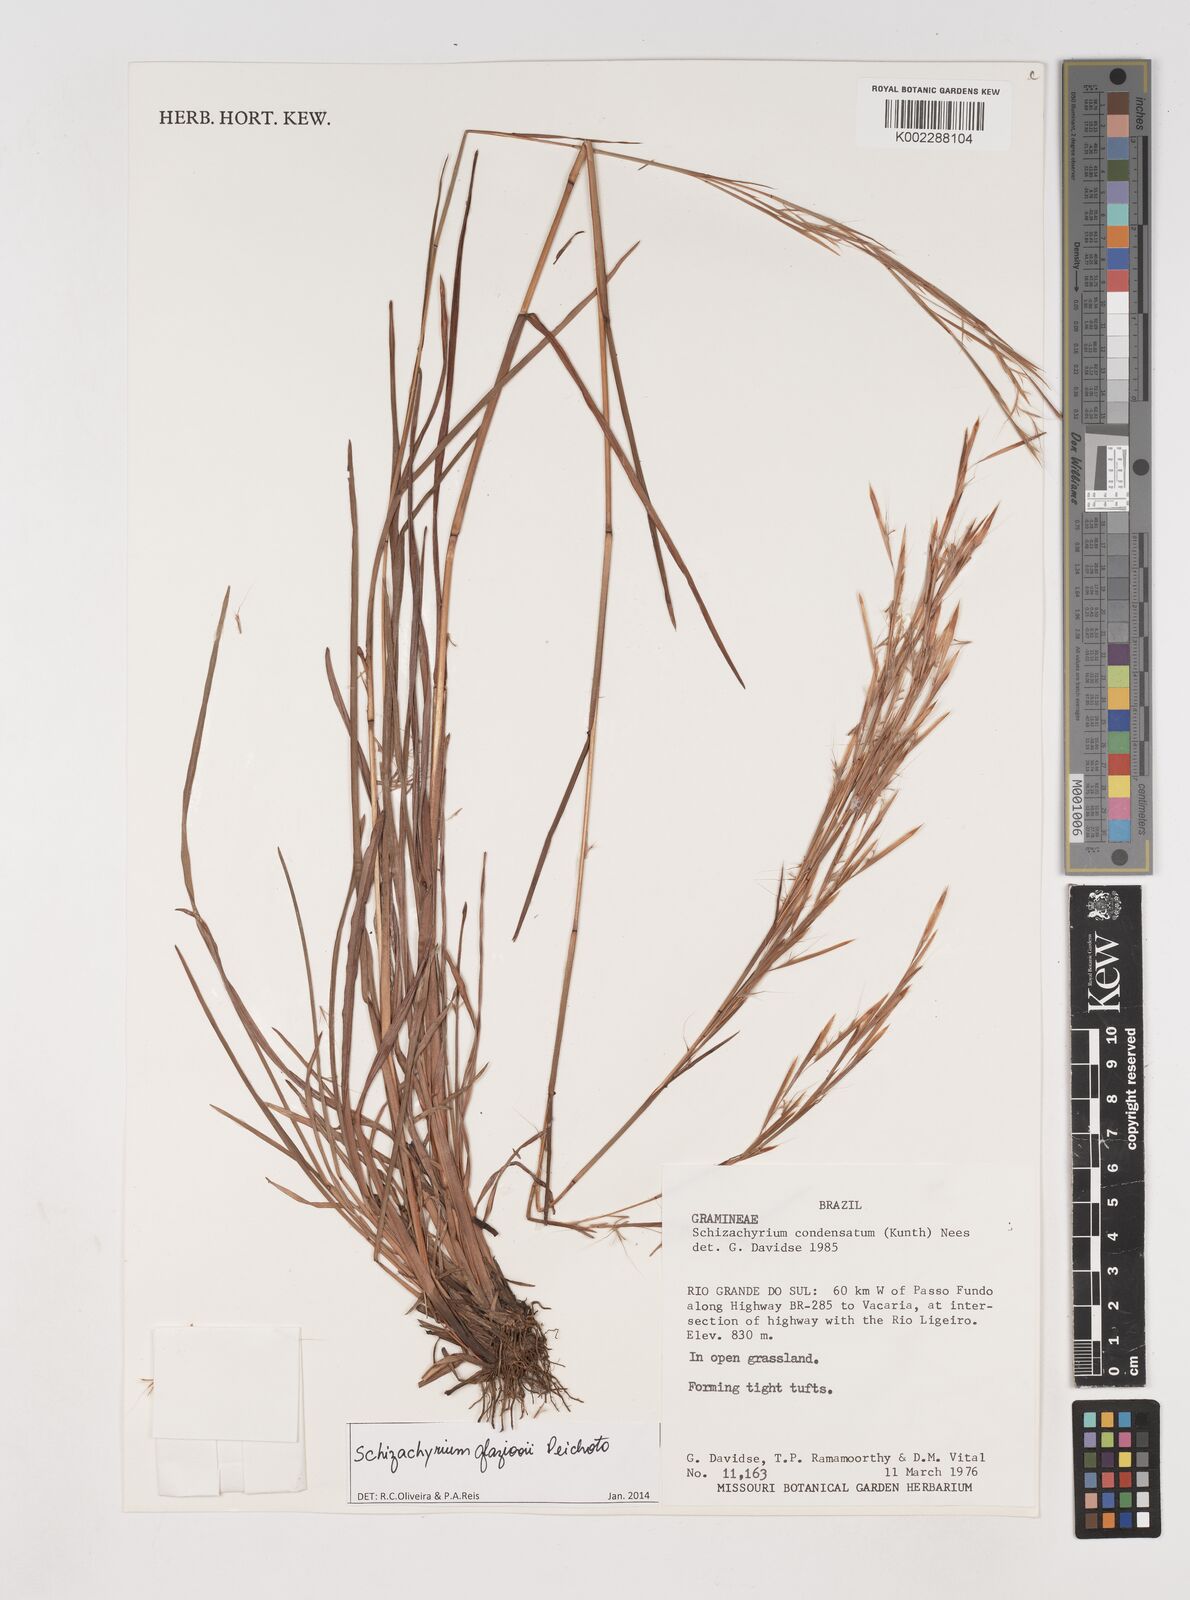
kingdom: Plantae
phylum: Tracheophyta
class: Liliopsida
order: Poales
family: Poaceae
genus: Schizachyrium
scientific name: Schizachyrium condensatum
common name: Bush beardgrass
